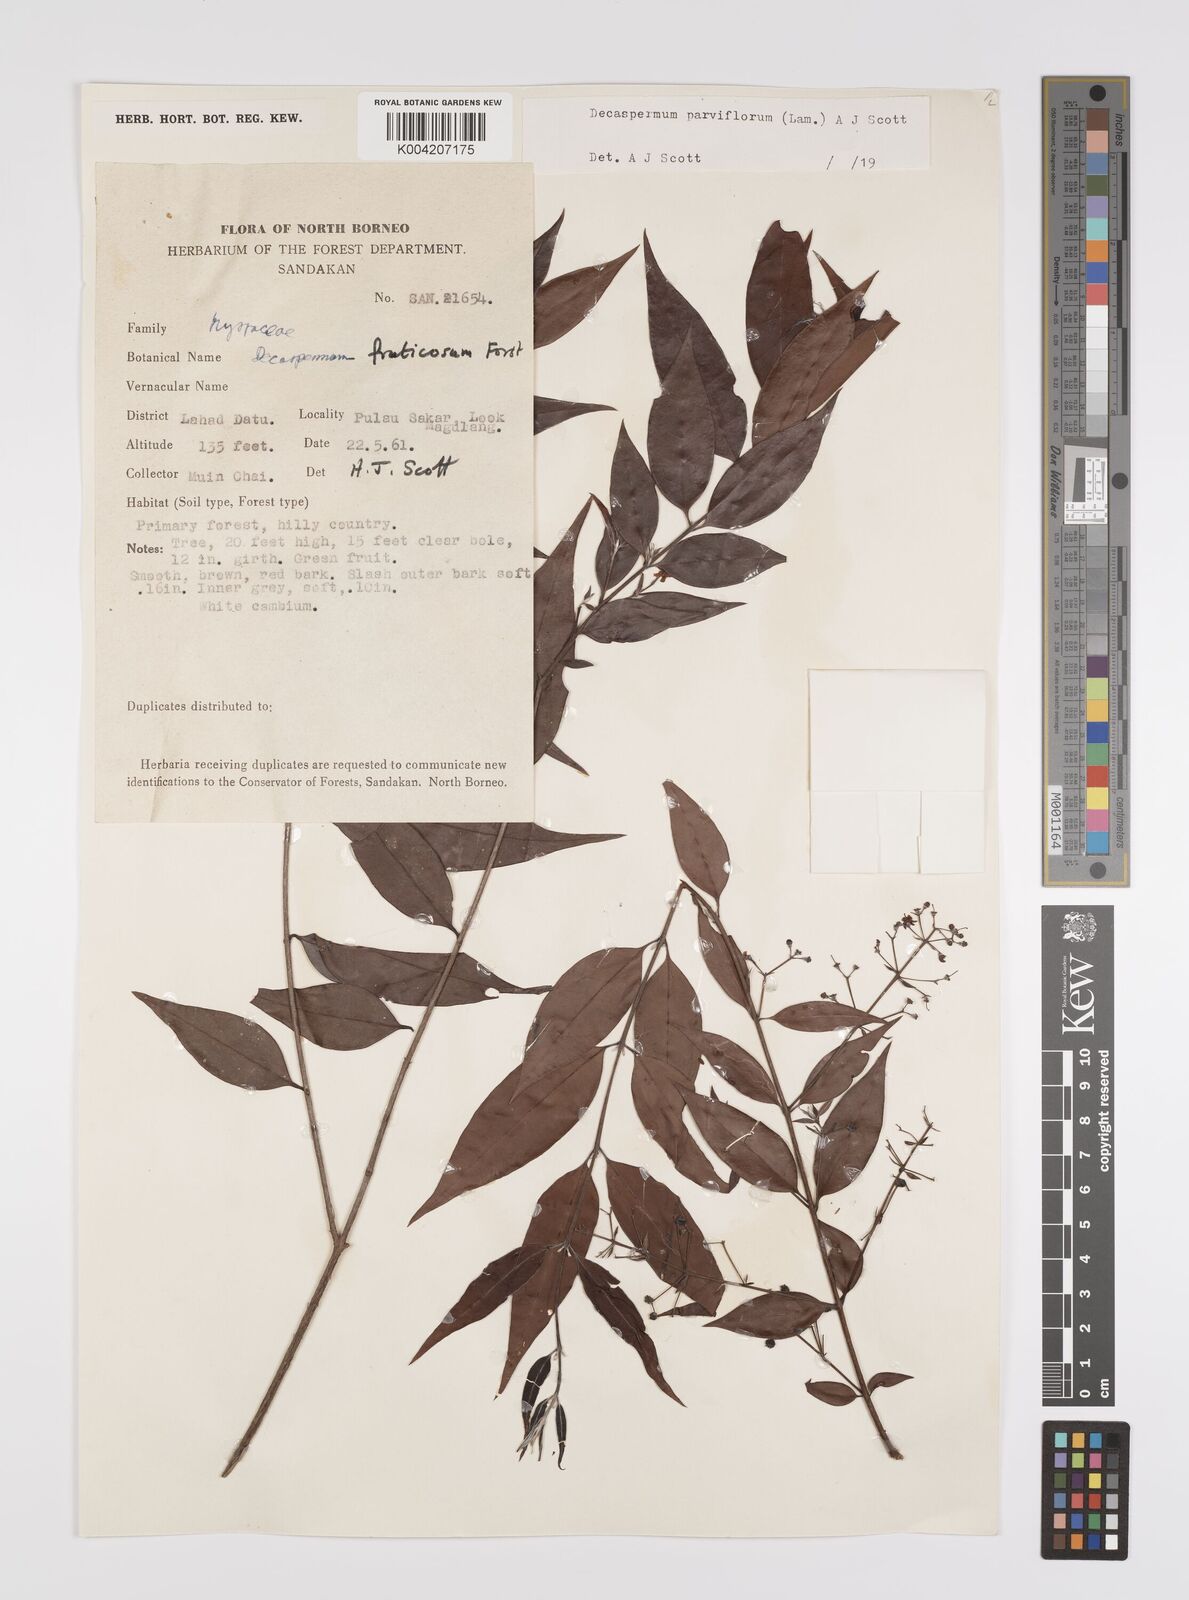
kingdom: Plantae
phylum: Tracheophyta
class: Magnoliopsida
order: Myrtales
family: Myrtaceae
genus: Decaspermum
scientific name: Decaspermum fruticosum
